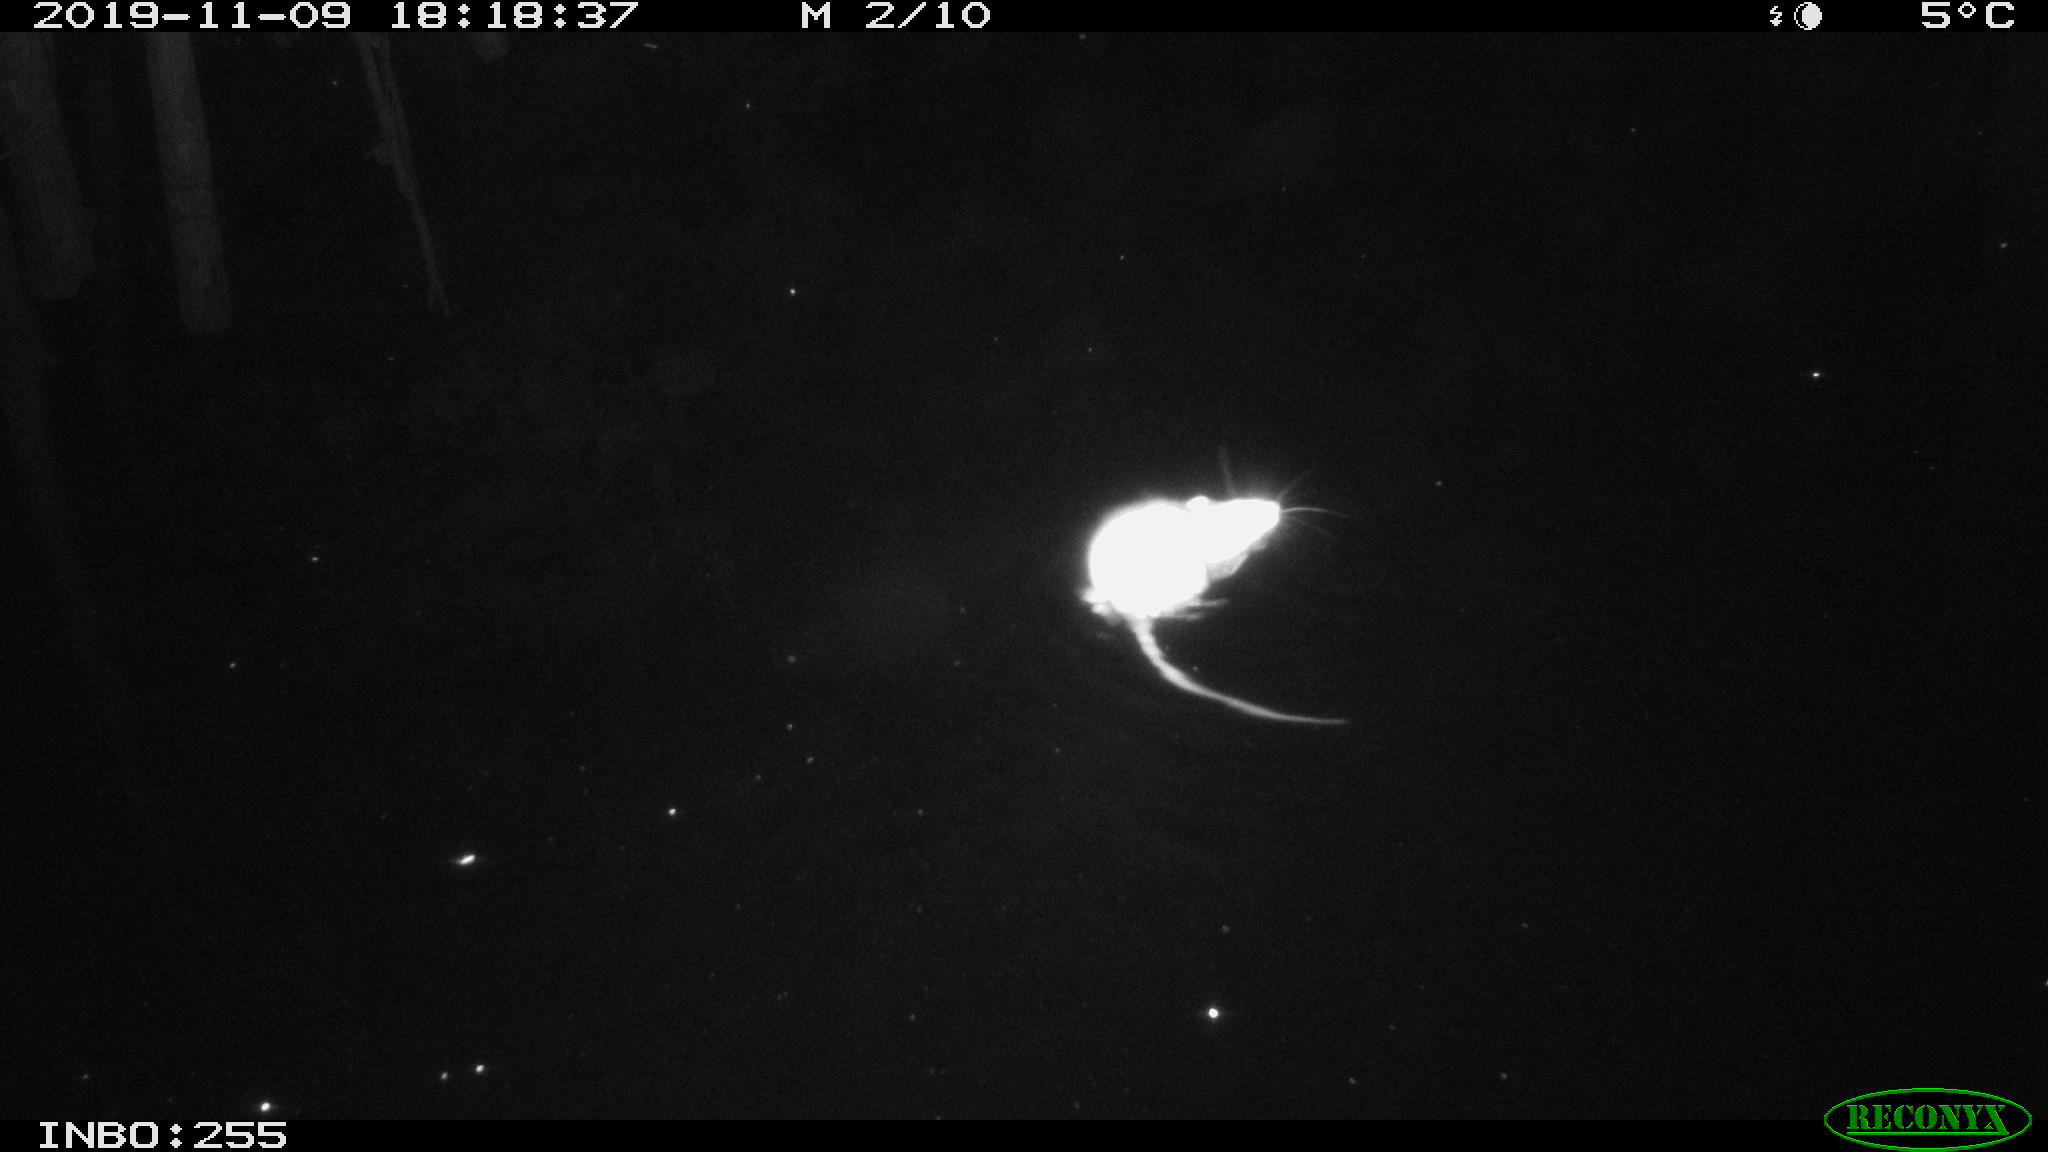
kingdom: Animalia
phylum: Chordata
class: Mammalia
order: Rodentia
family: Muridae
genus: Rattus
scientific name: Rattus norvegicus
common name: Brown rat
